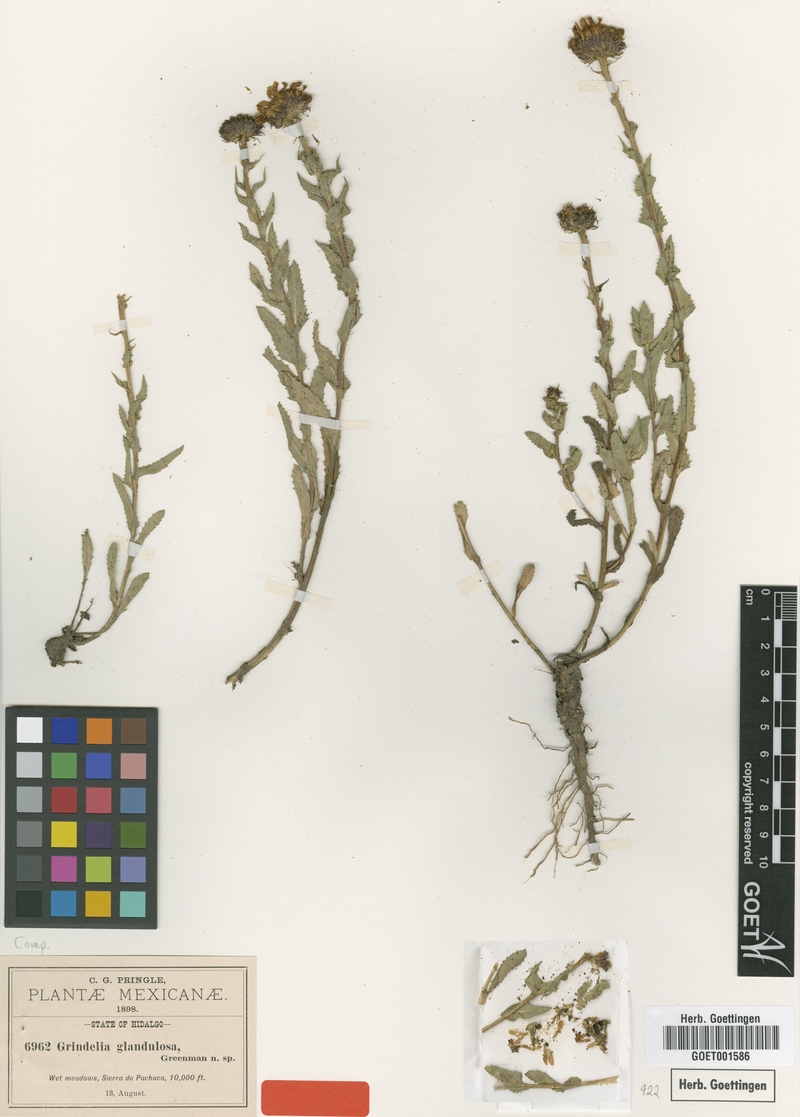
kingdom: Plantae
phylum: Tracheophyta
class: Magnoliopsida
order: Asterales
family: Asteraceae
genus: Grindelia
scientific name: Grindelia inuloides
